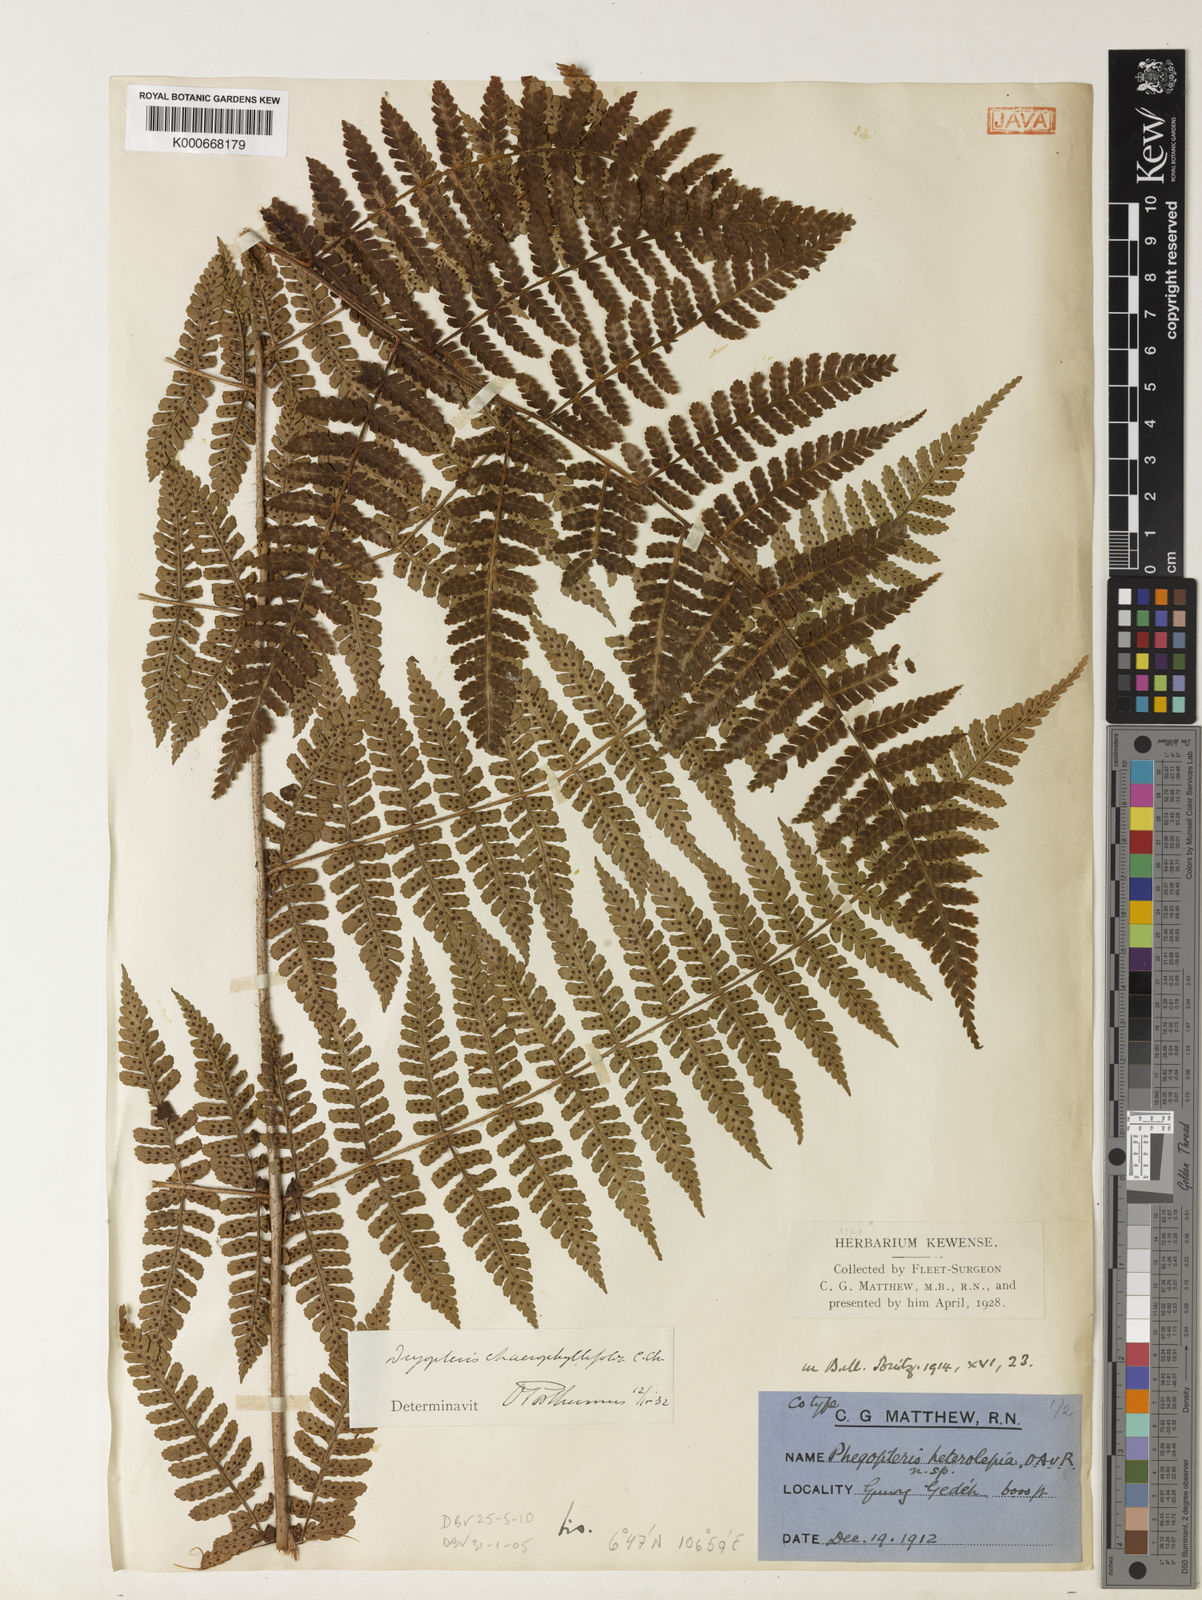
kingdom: Plantae
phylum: Tracheophyta
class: Polypodiopsida
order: Polypodiales
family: Dryopteridaceae
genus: Dryopteris
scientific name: Dryopteris chaerophyllifolia
